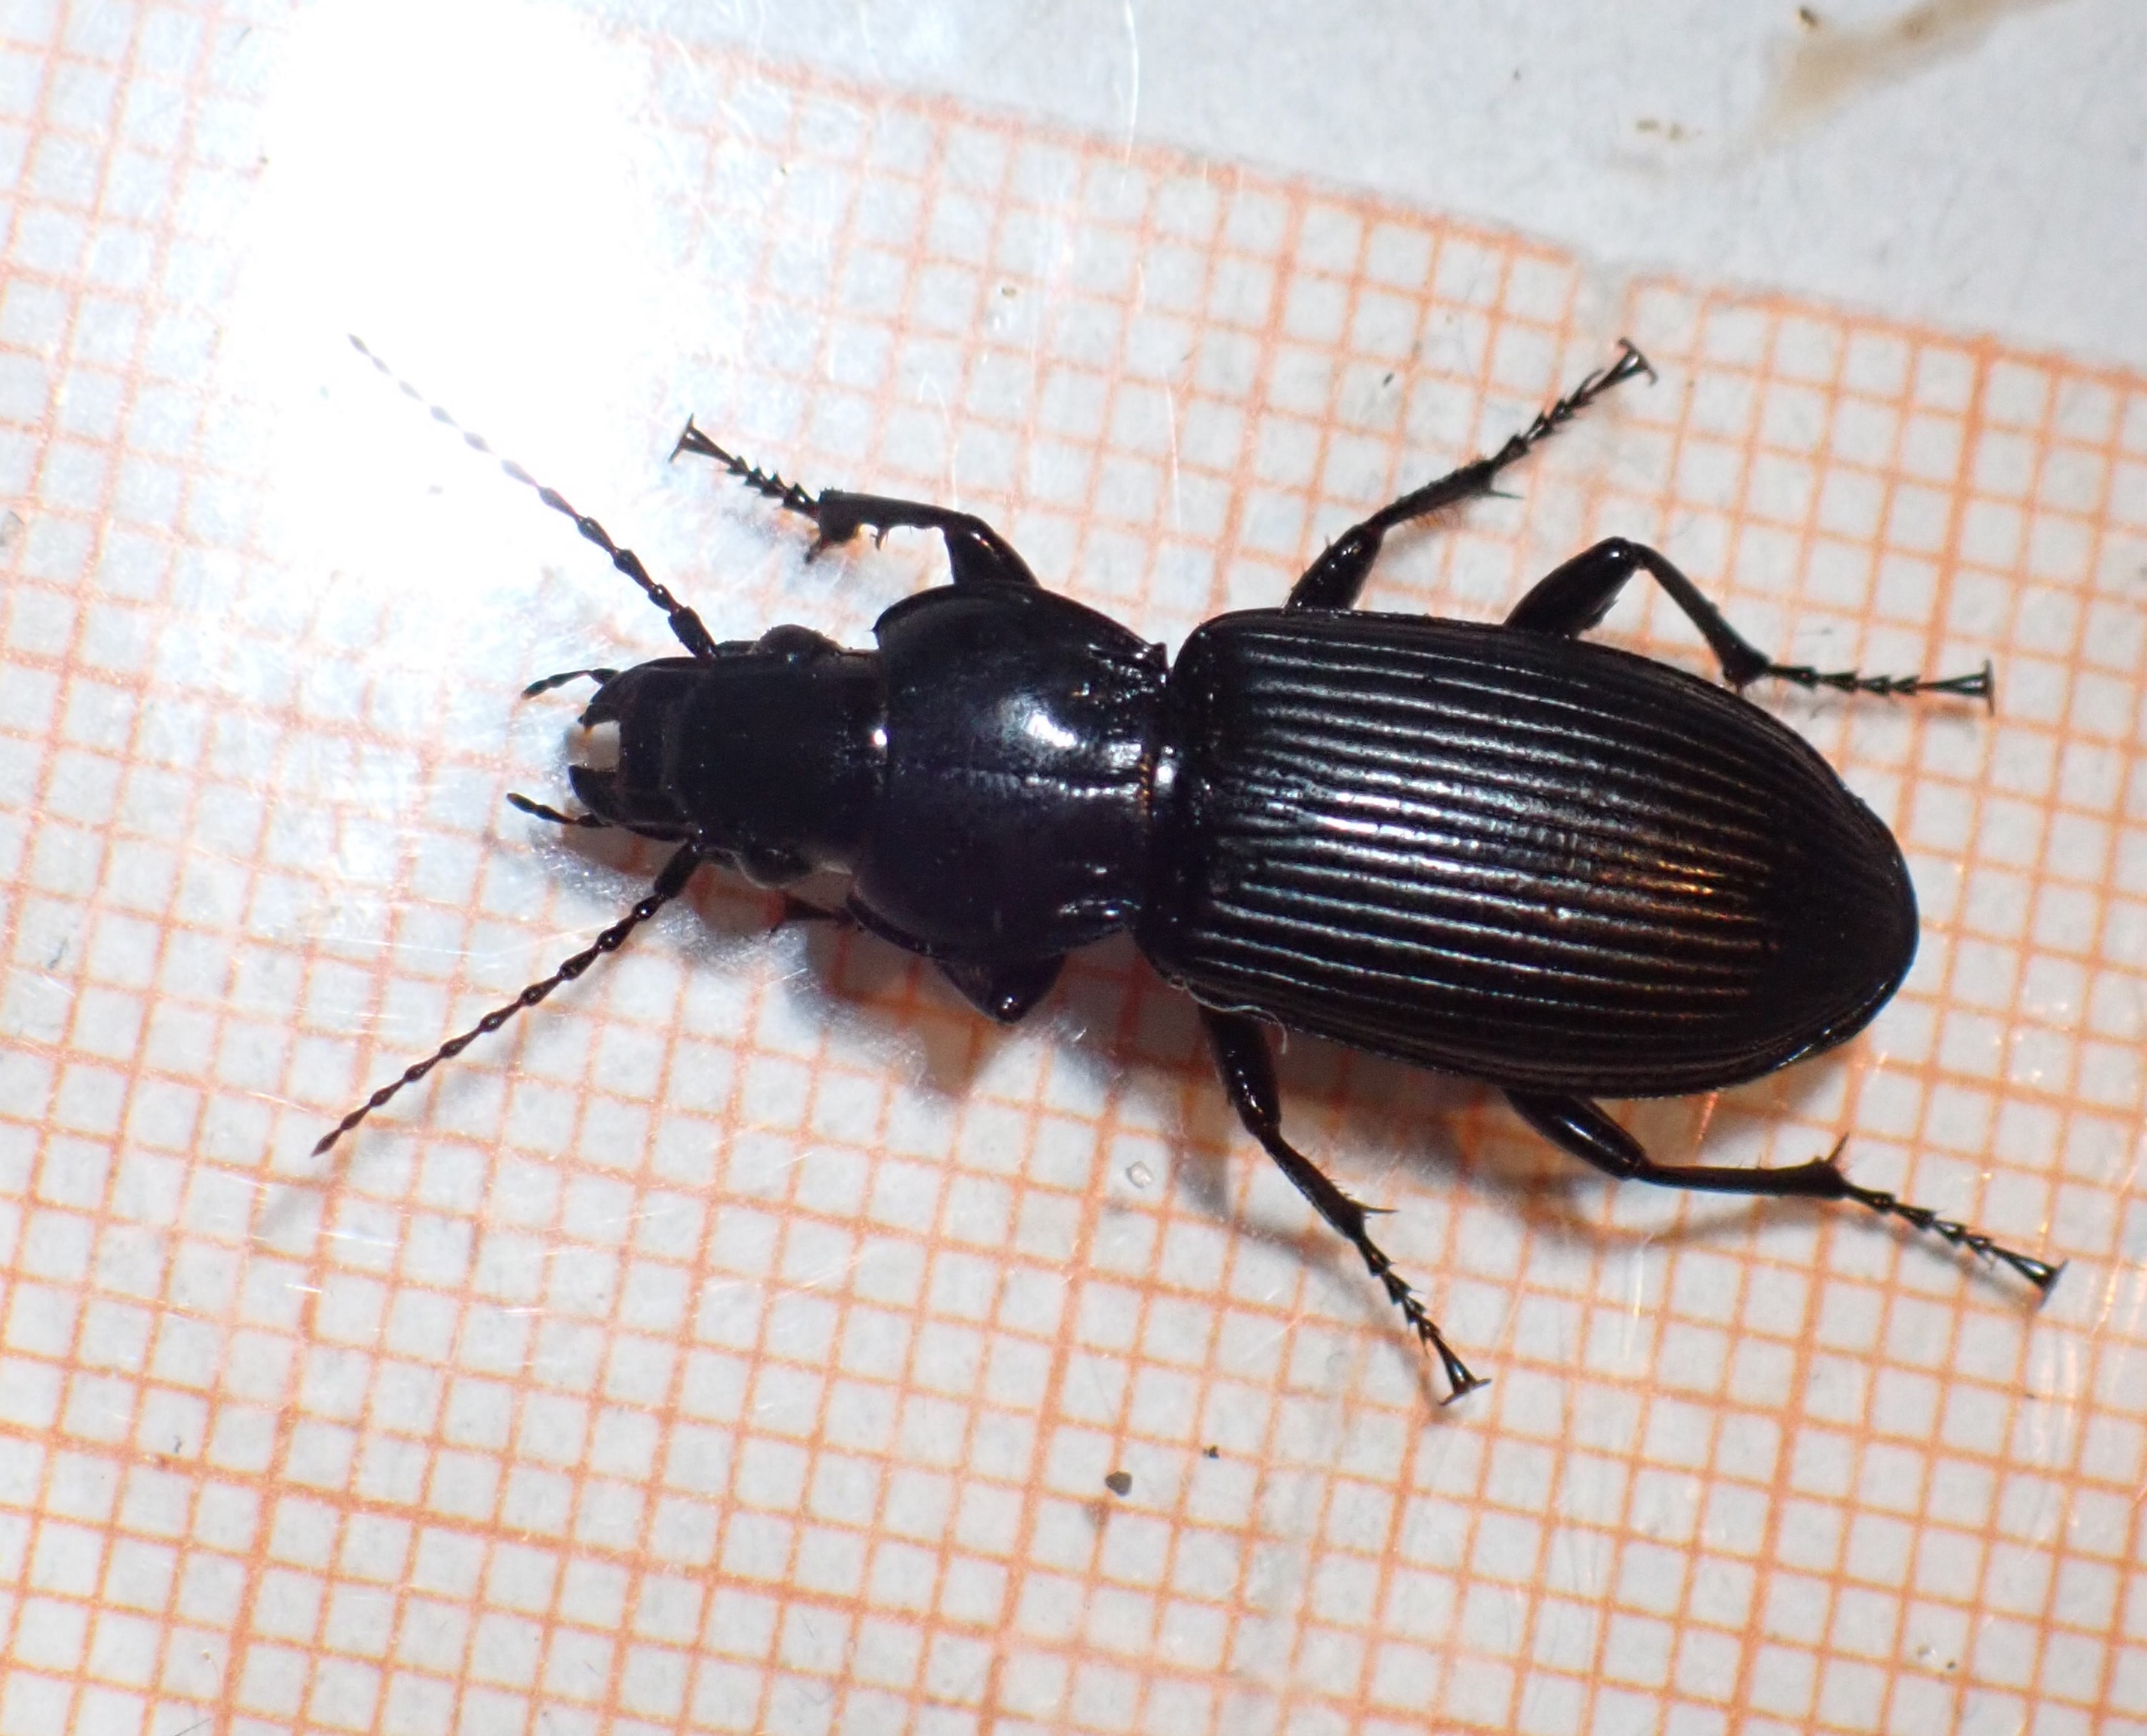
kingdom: Animalia
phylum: Arthropoda
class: Insecta
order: Coleoptera
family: Carabidae
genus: Pterostichus
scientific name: Pterostichus melanarius
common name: Markjordløber
